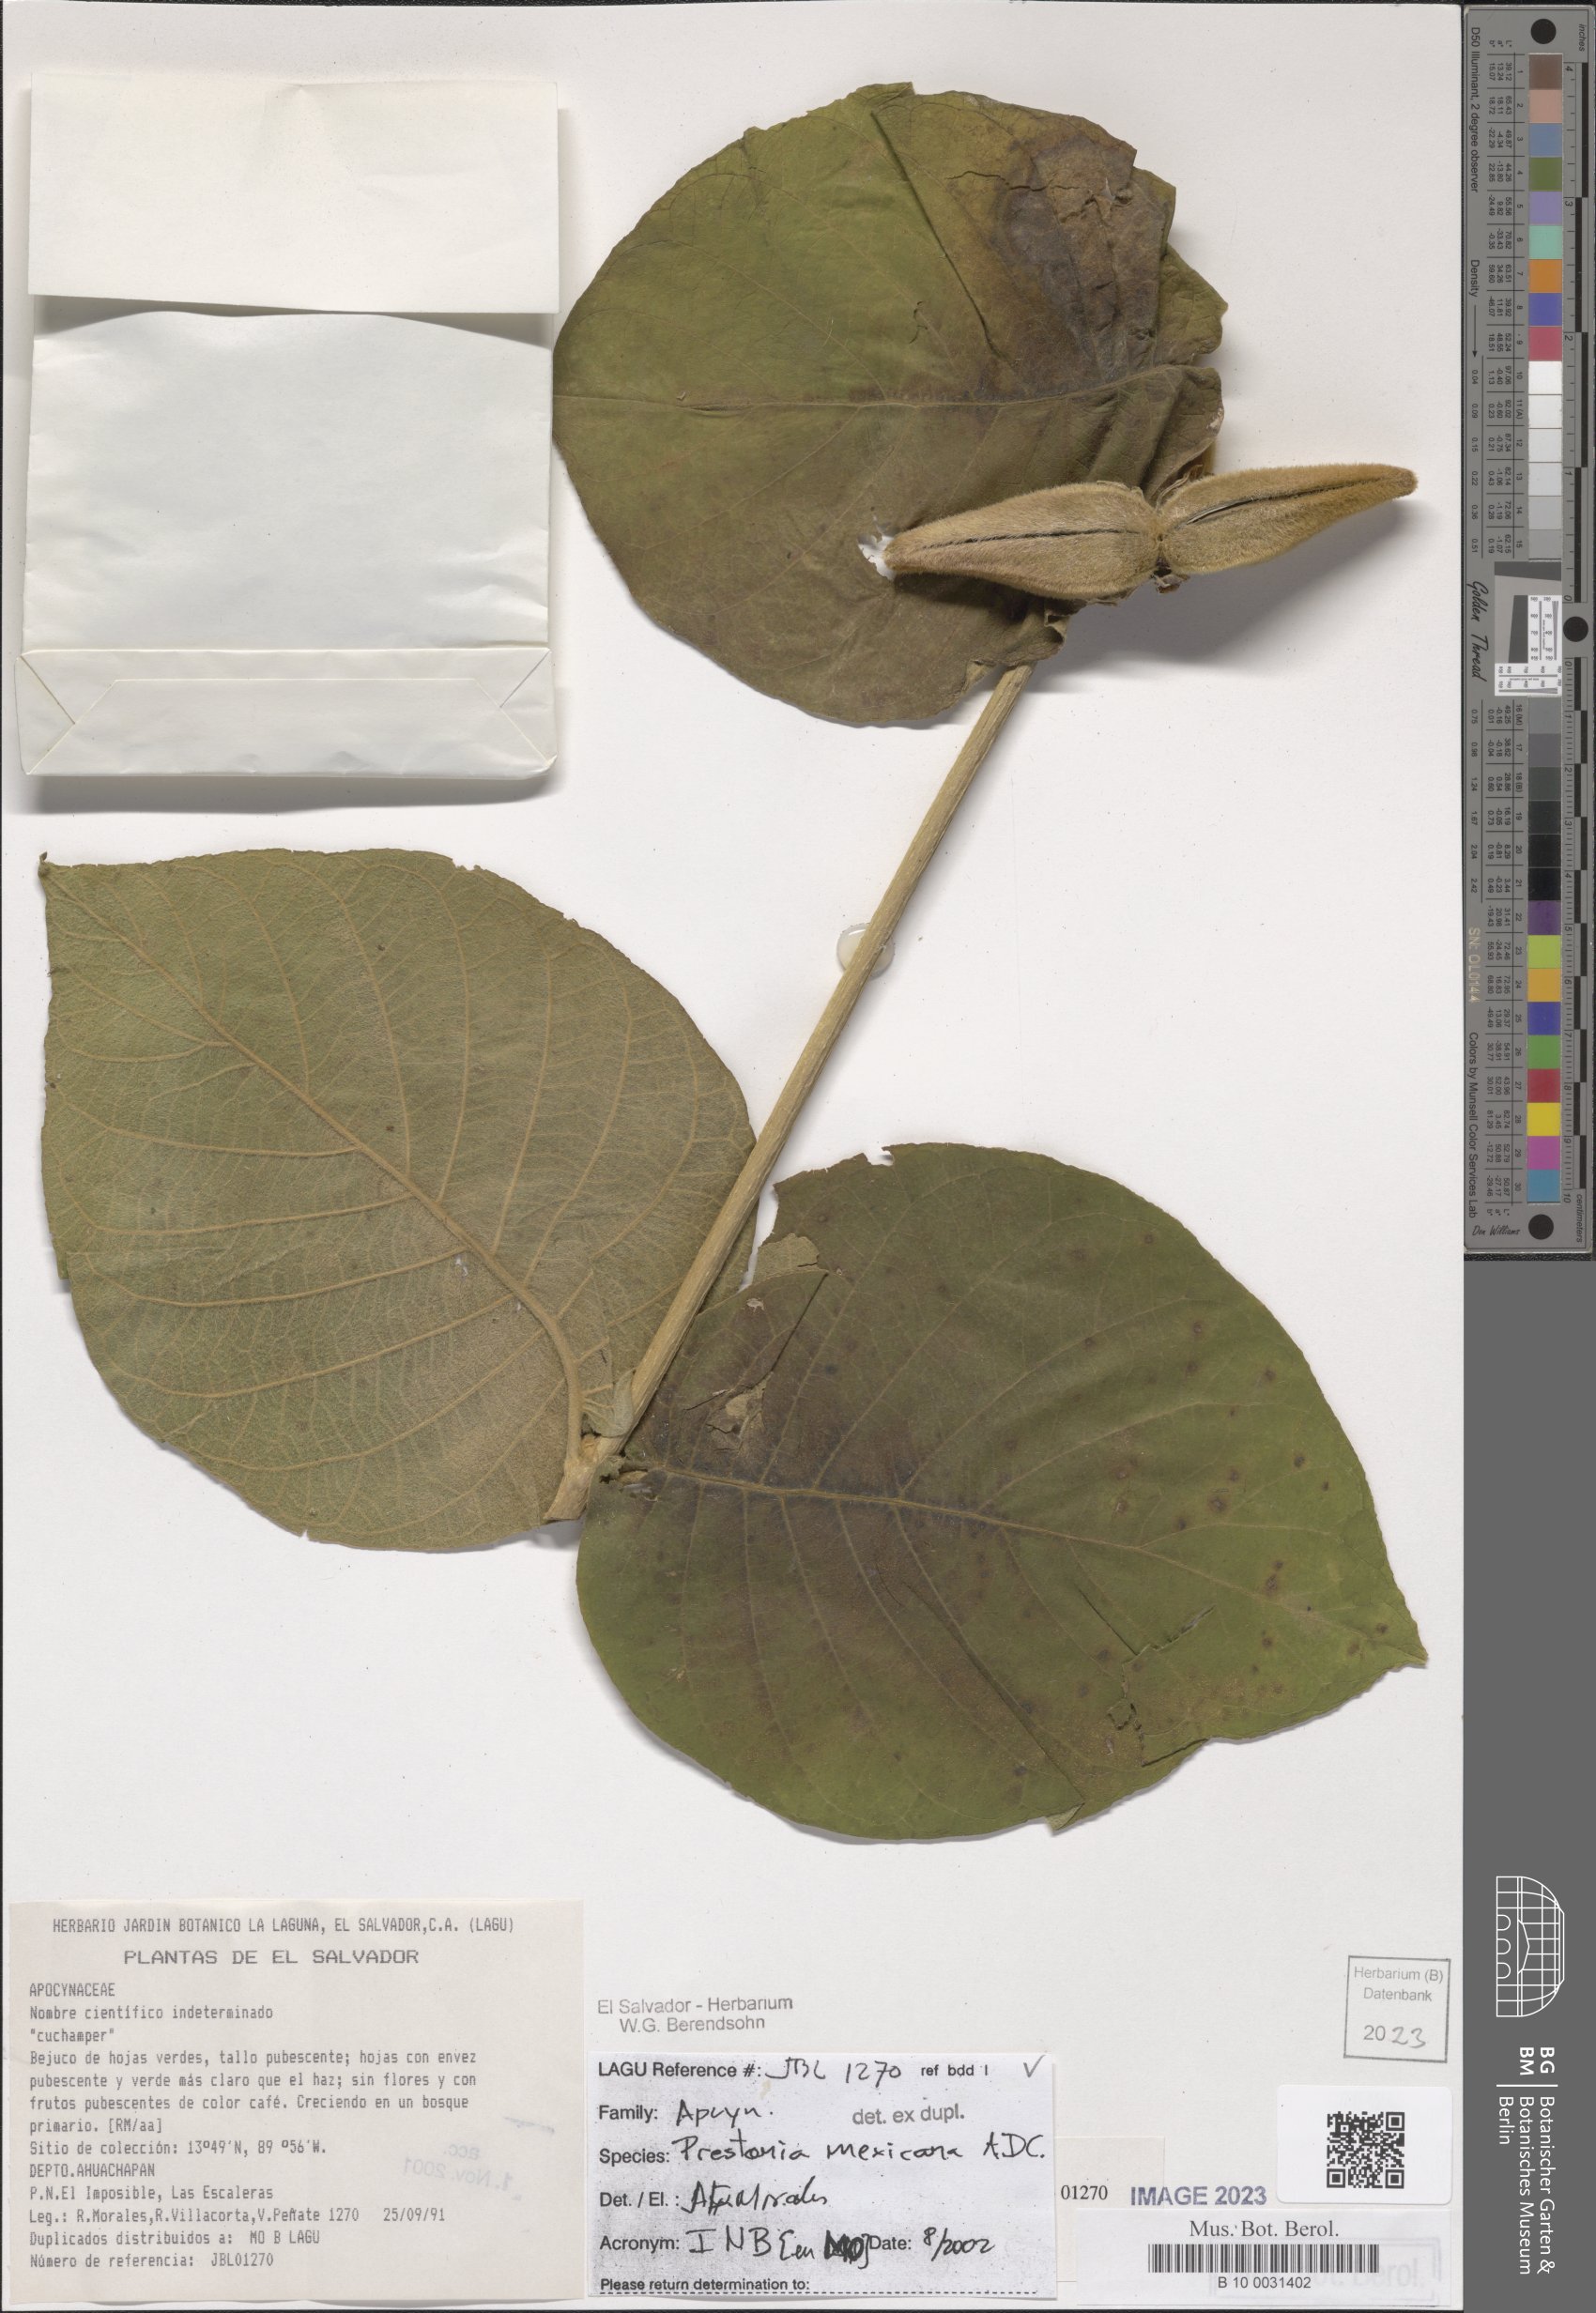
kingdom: Plantae
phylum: Tracheophyta
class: Magnoliopsida
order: Gentianales
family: Apocynaceae
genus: Prestonia
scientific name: Prestonia mexicana
